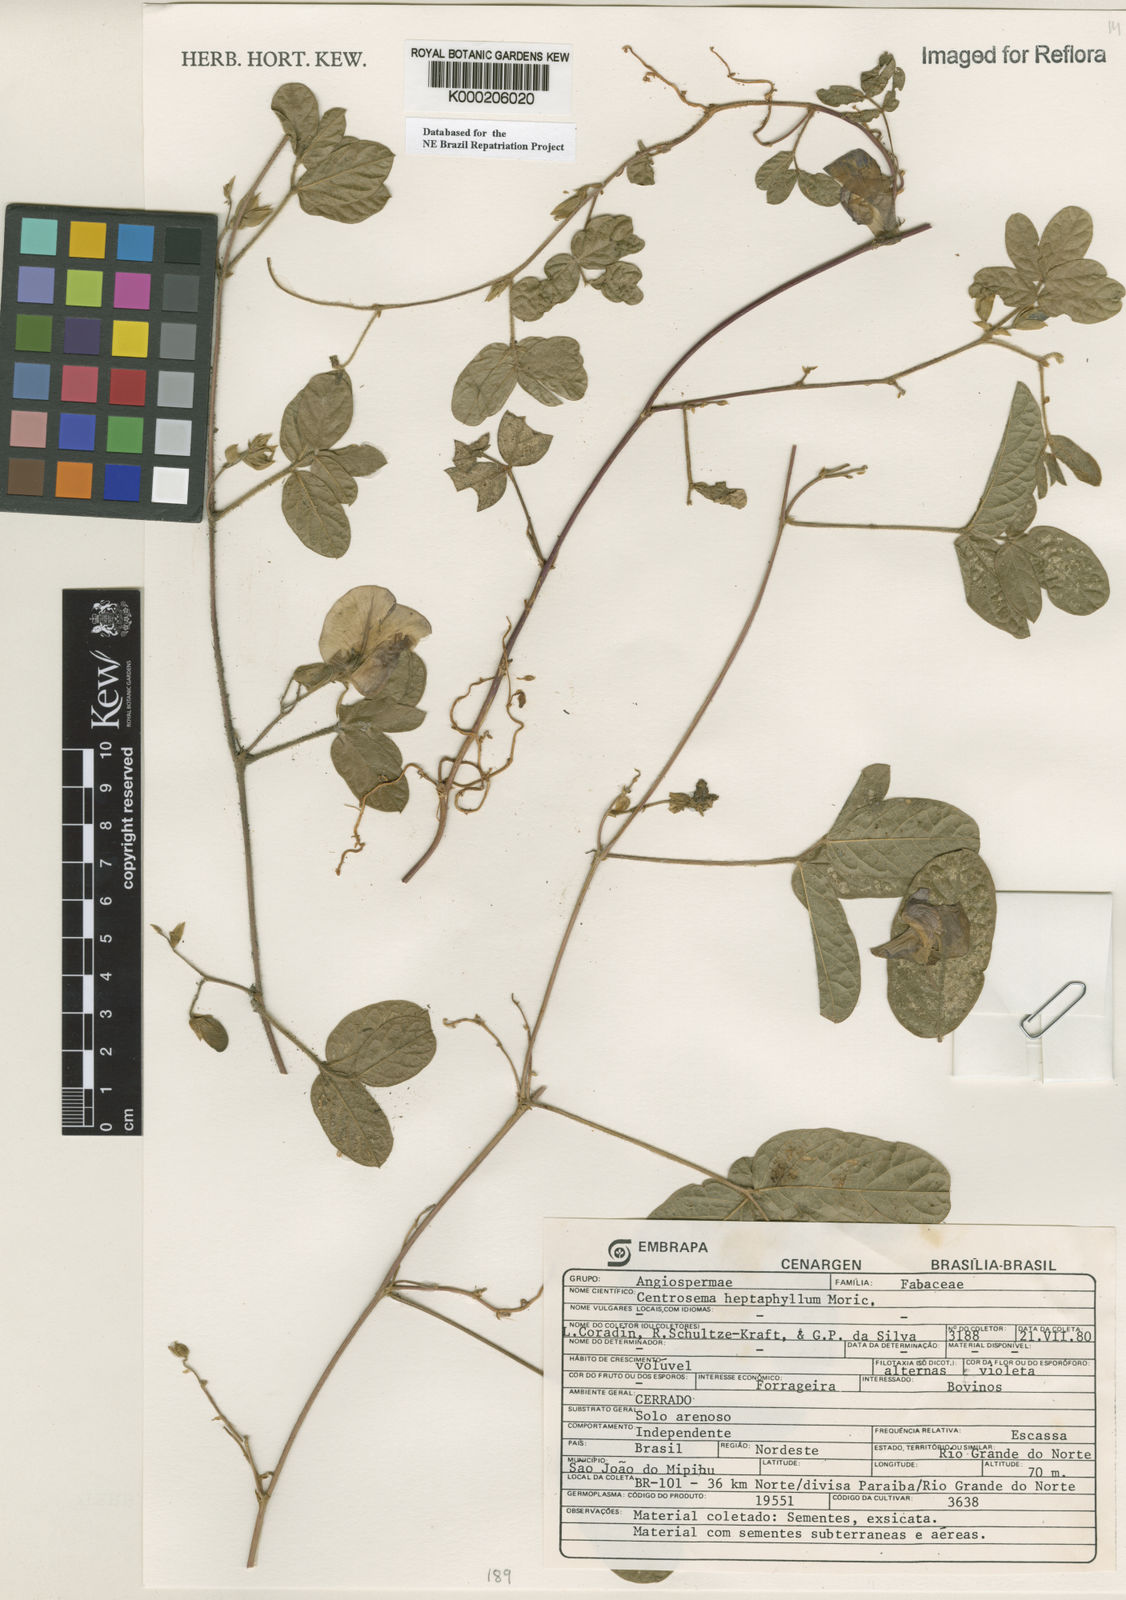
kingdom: Plantae
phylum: Tracheophyta
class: Magnoliopsida
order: Fabales
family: Fabaceae
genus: Centrosema
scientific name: Centrosema heptaphyllum
